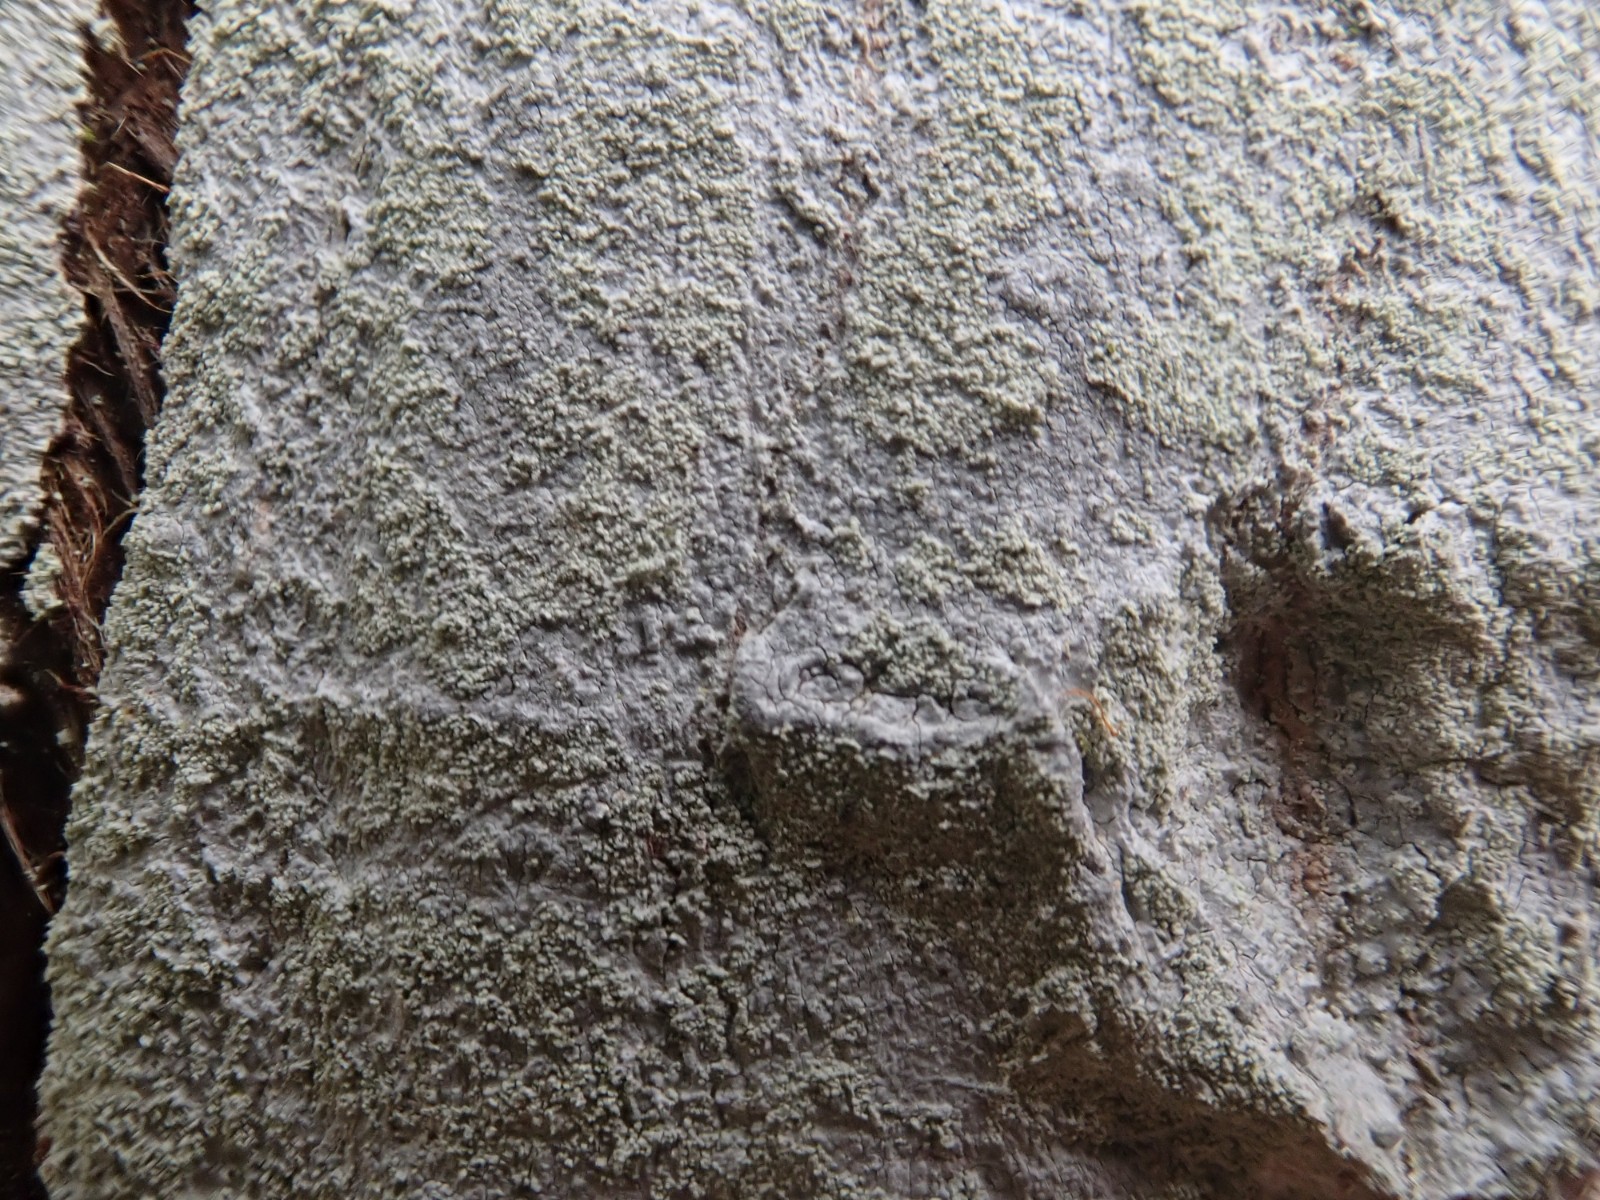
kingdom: Fungi
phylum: Ascomycota
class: Lecanoromycetes
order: Ostropales
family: Phlyctidaceae
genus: Phlyctis
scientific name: Phlyctis argena
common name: almindelig sølvlav
